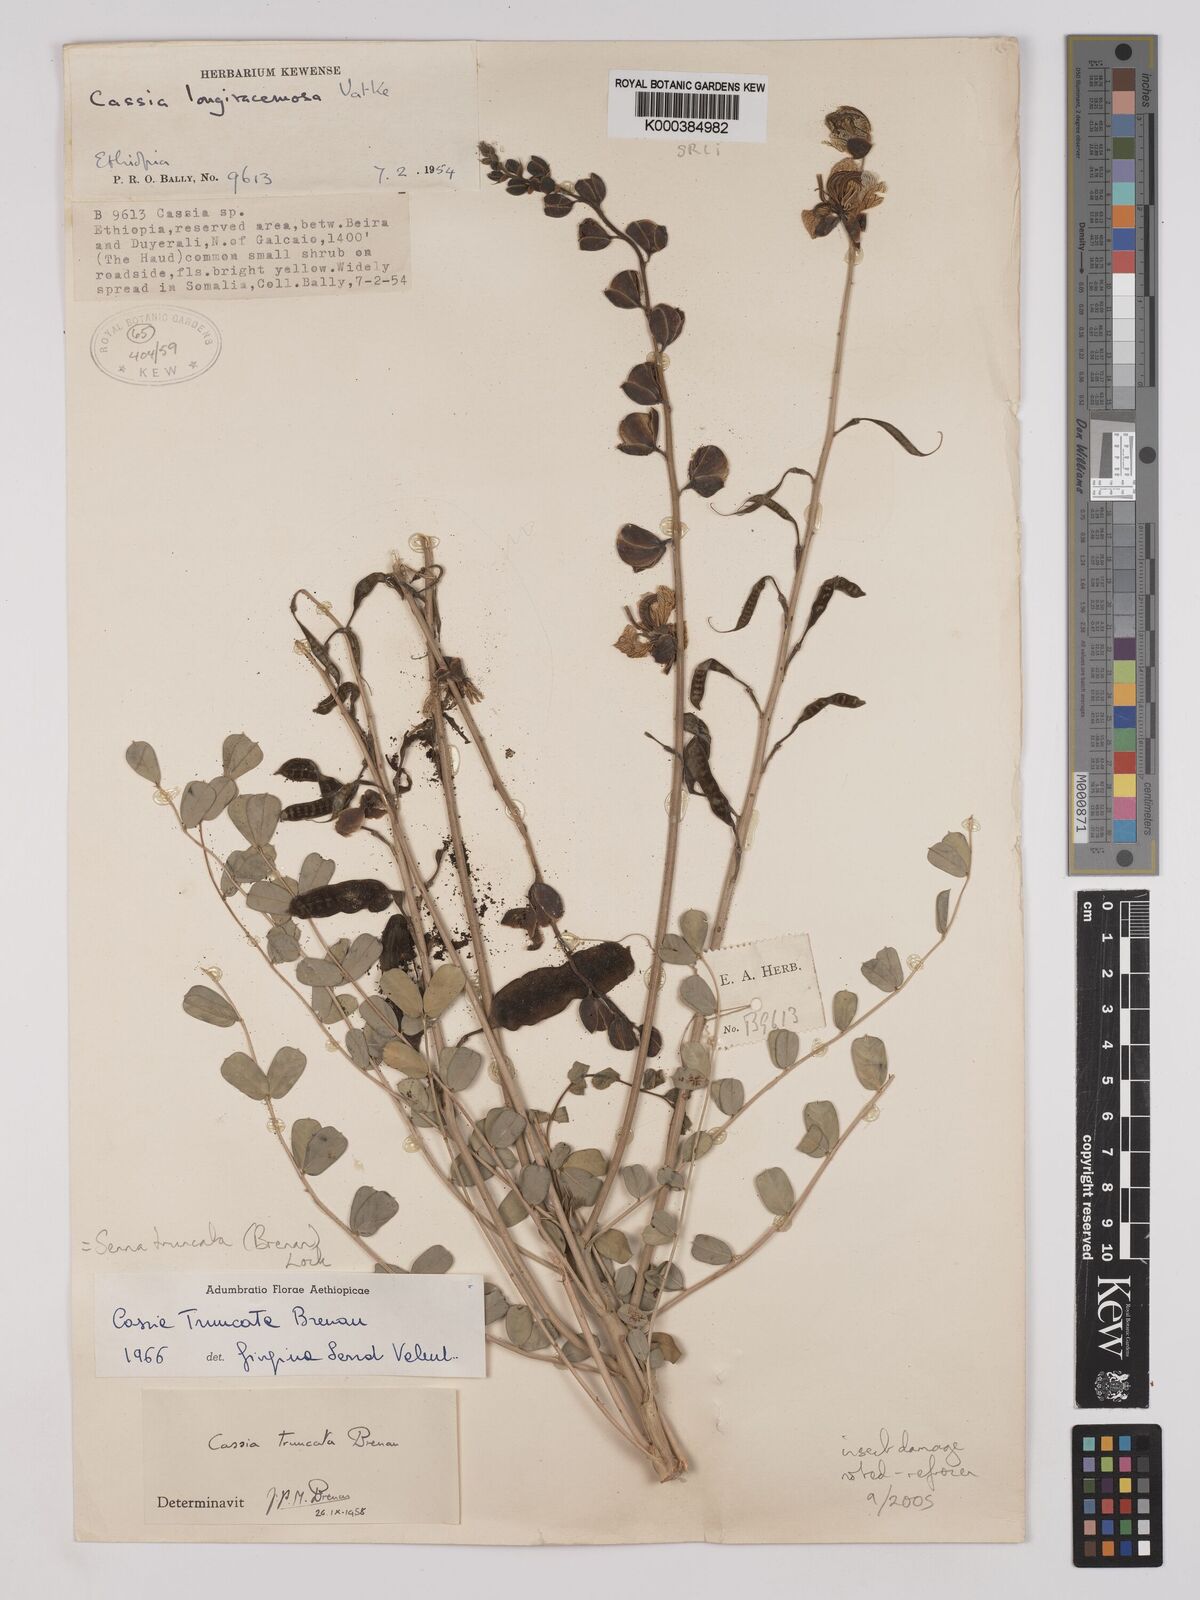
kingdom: Plantae
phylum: Tracheophyta
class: Magnoliopsida
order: Fabales
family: Fabaceae
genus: Senna
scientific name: Senna truncata
